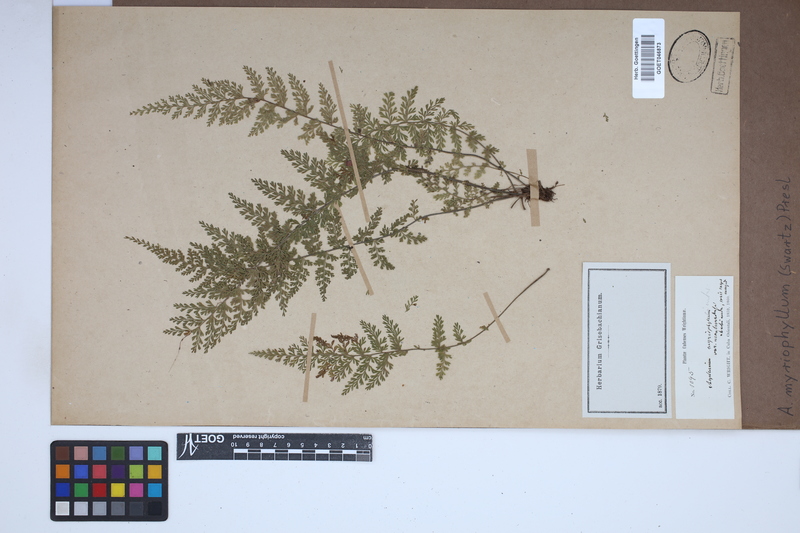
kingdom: Plantae
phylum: Tracheophyta
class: Polypodiopsida
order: Polypodiales
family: Aspleniaceae
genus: Asplenium
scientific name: Asplenium myriophyllum
